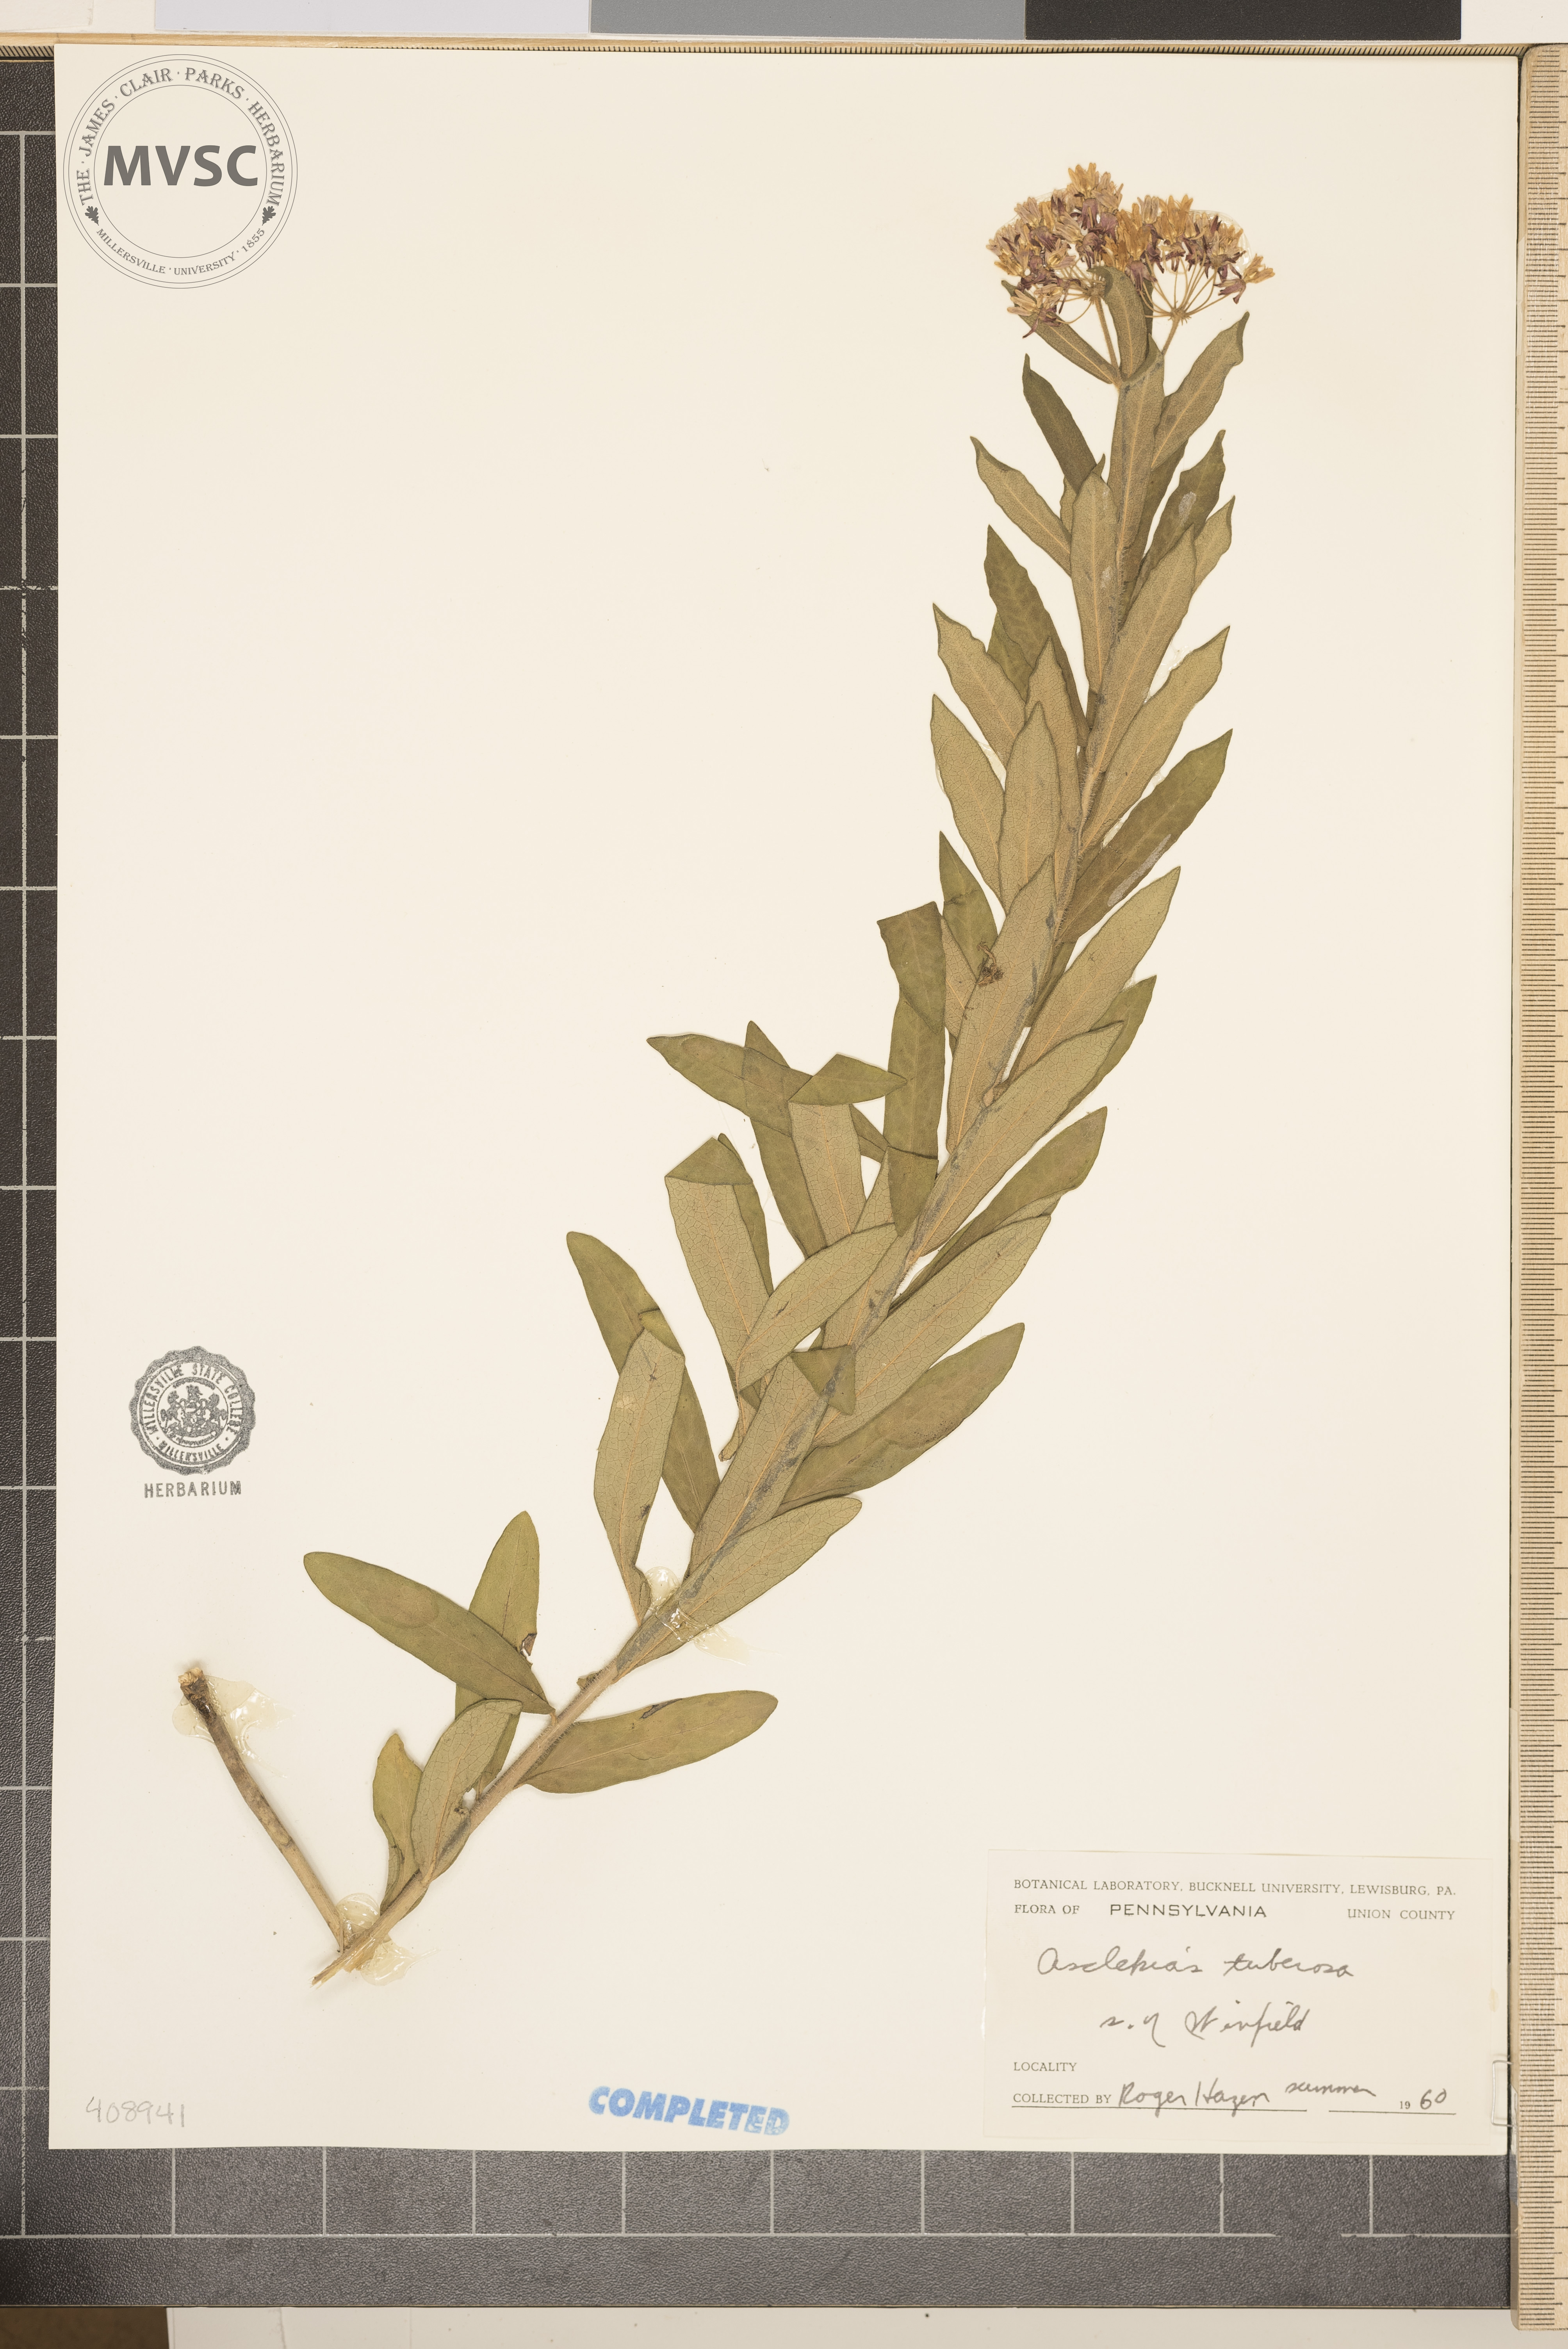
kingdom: Plantae
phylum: Tracheophyta
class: Magnoliopsida
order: Gentianales
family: Apocynaceae
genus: Asclepias
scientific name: Asclepias tuberosa
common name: Butterfly milkweed
